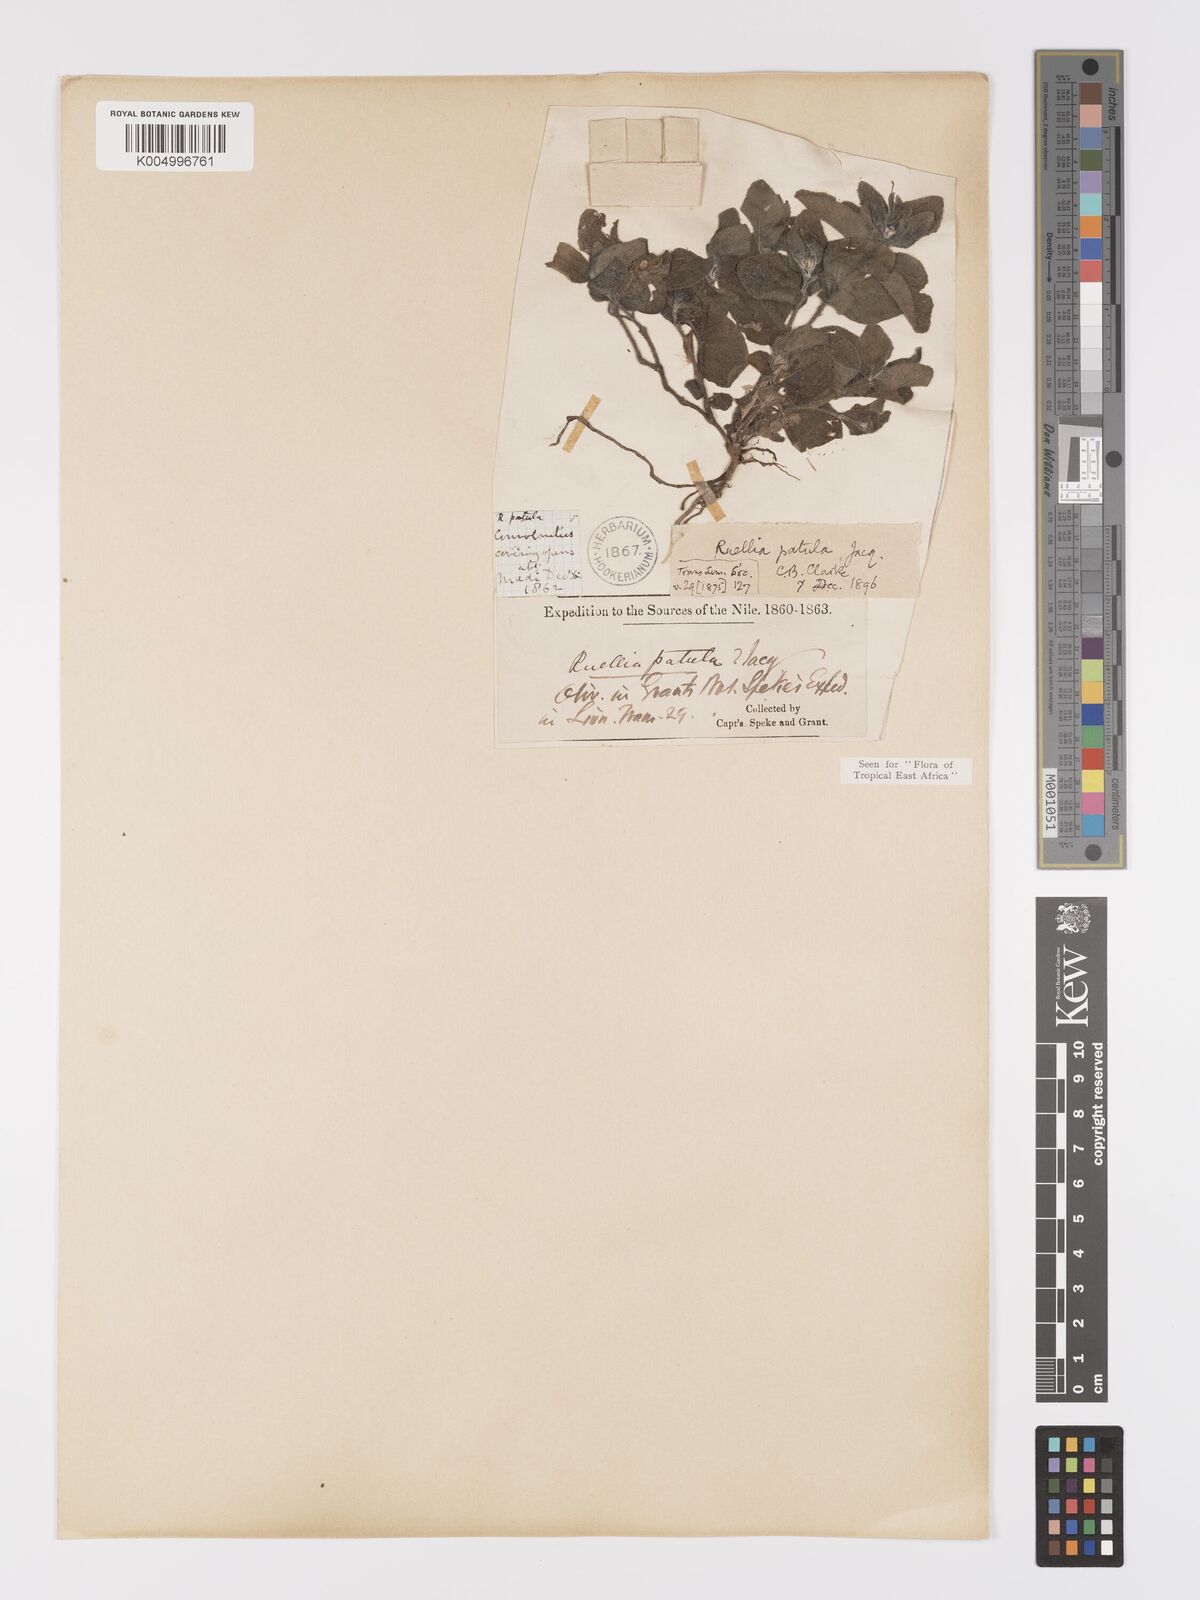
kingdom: Plantae
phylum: Tracheophyta
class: Magnoliopsida
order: Lamiales
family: Acanthaceae
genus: Ruellia
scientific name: Ruellia patula
